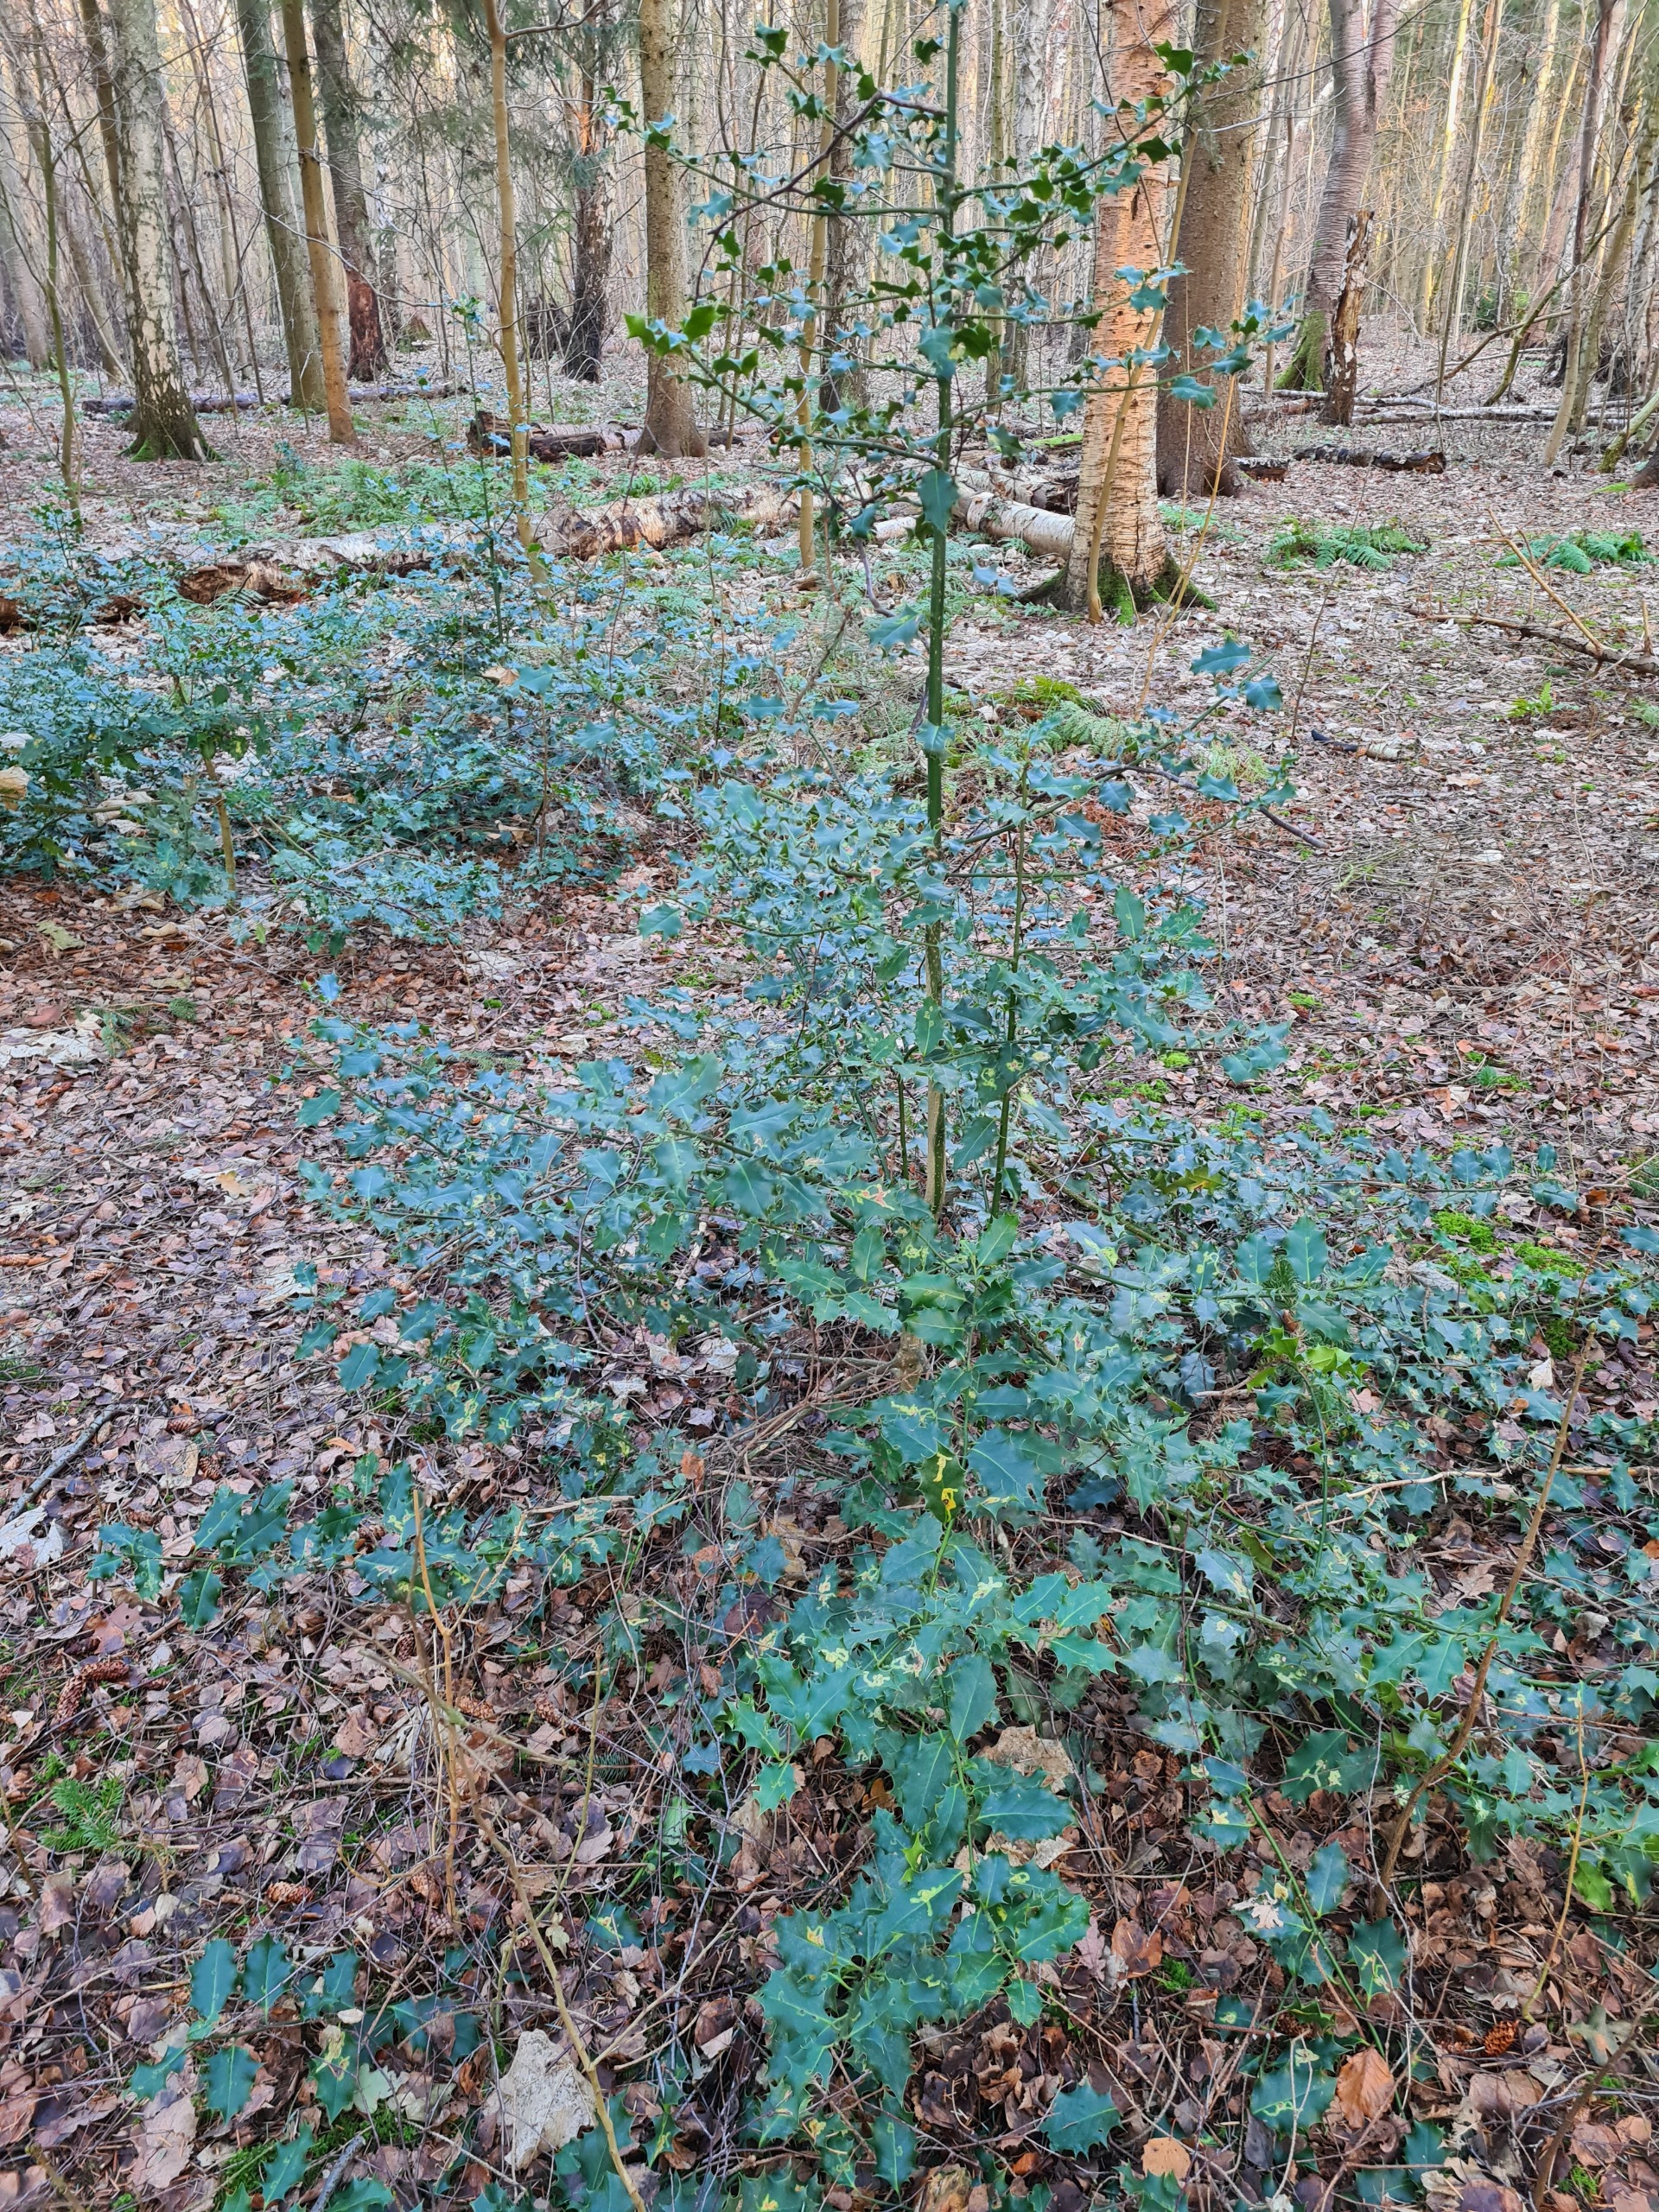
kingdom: Plantae
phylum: Tracheophyta
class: Magnoliopsida
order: Aquifoliales
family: Aquifoliaceae
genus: Ilex
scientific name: Ilex aquifolium
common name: Kristtorn
